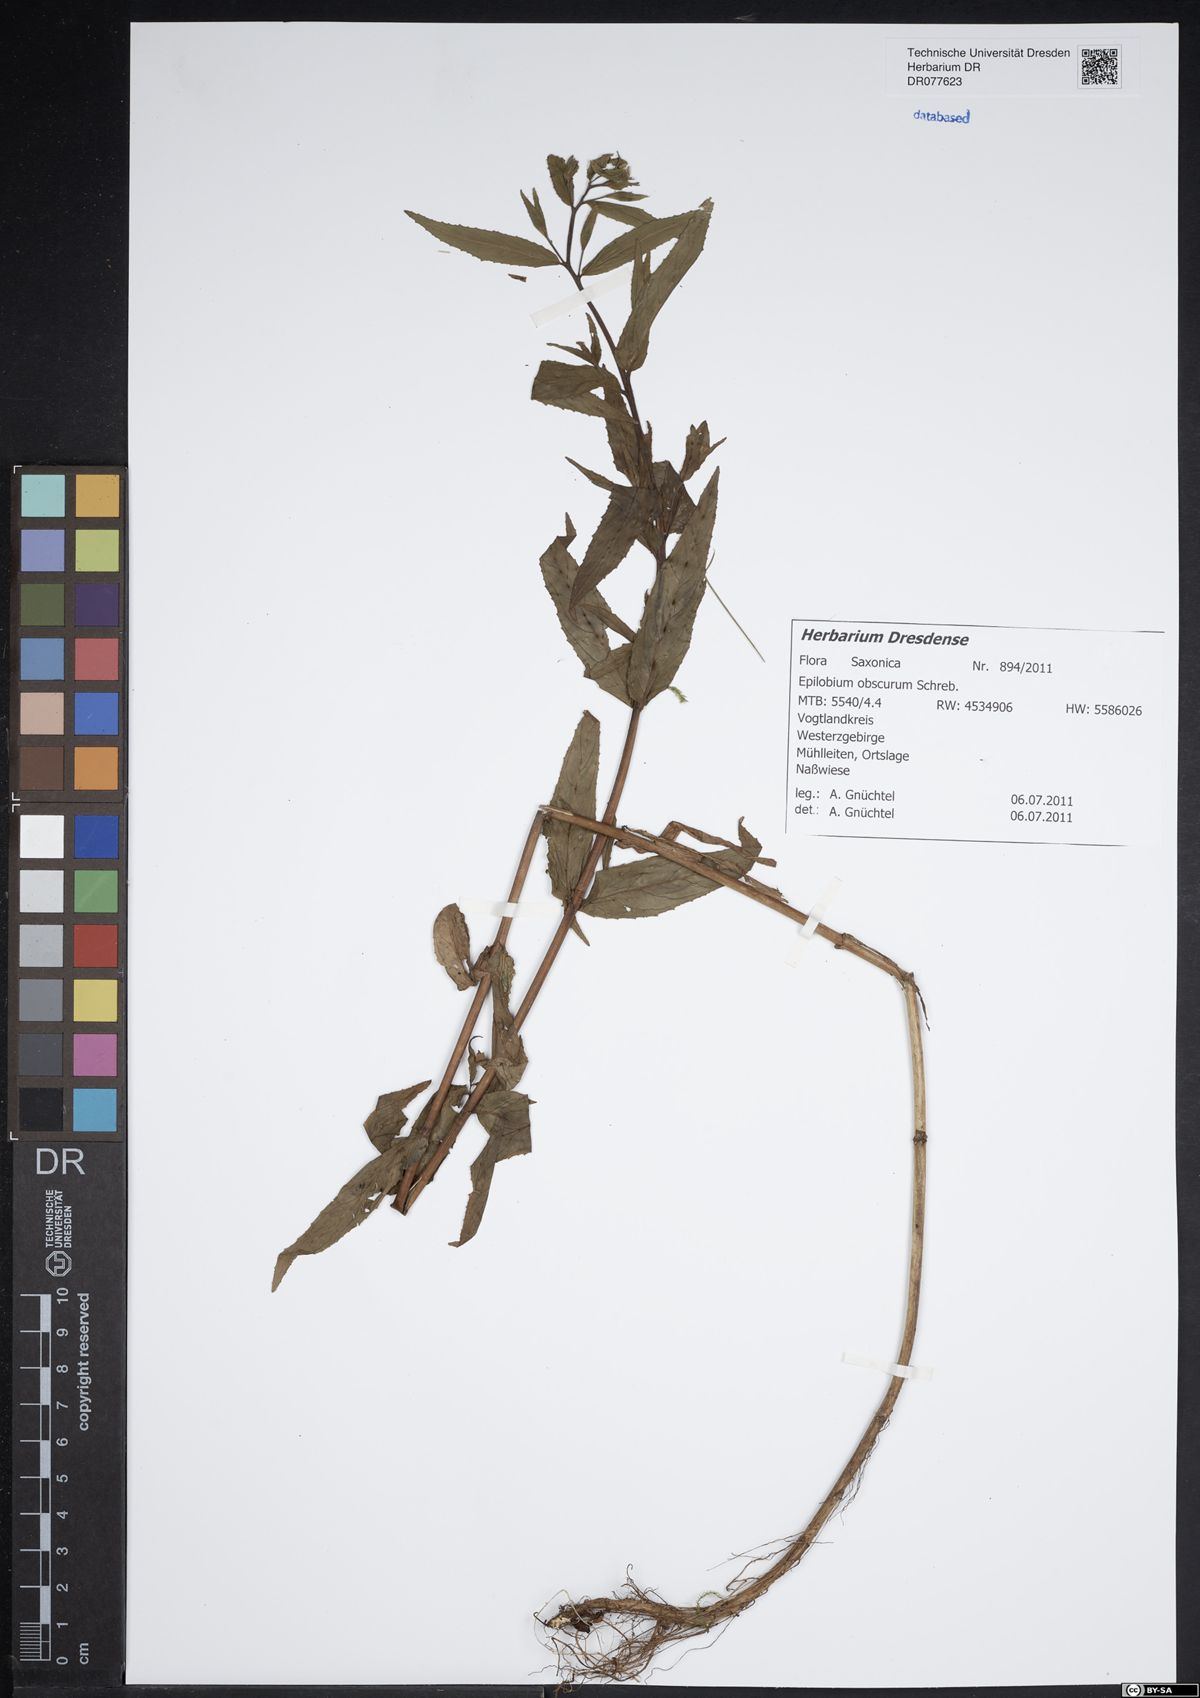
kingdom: Plantae
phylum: Tracheophyta
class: Magnoliopsida
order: Myrtales
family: Onagraceae
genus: Epilobium
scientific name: Epilobium obscurum
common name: Short-fruited willowherb
